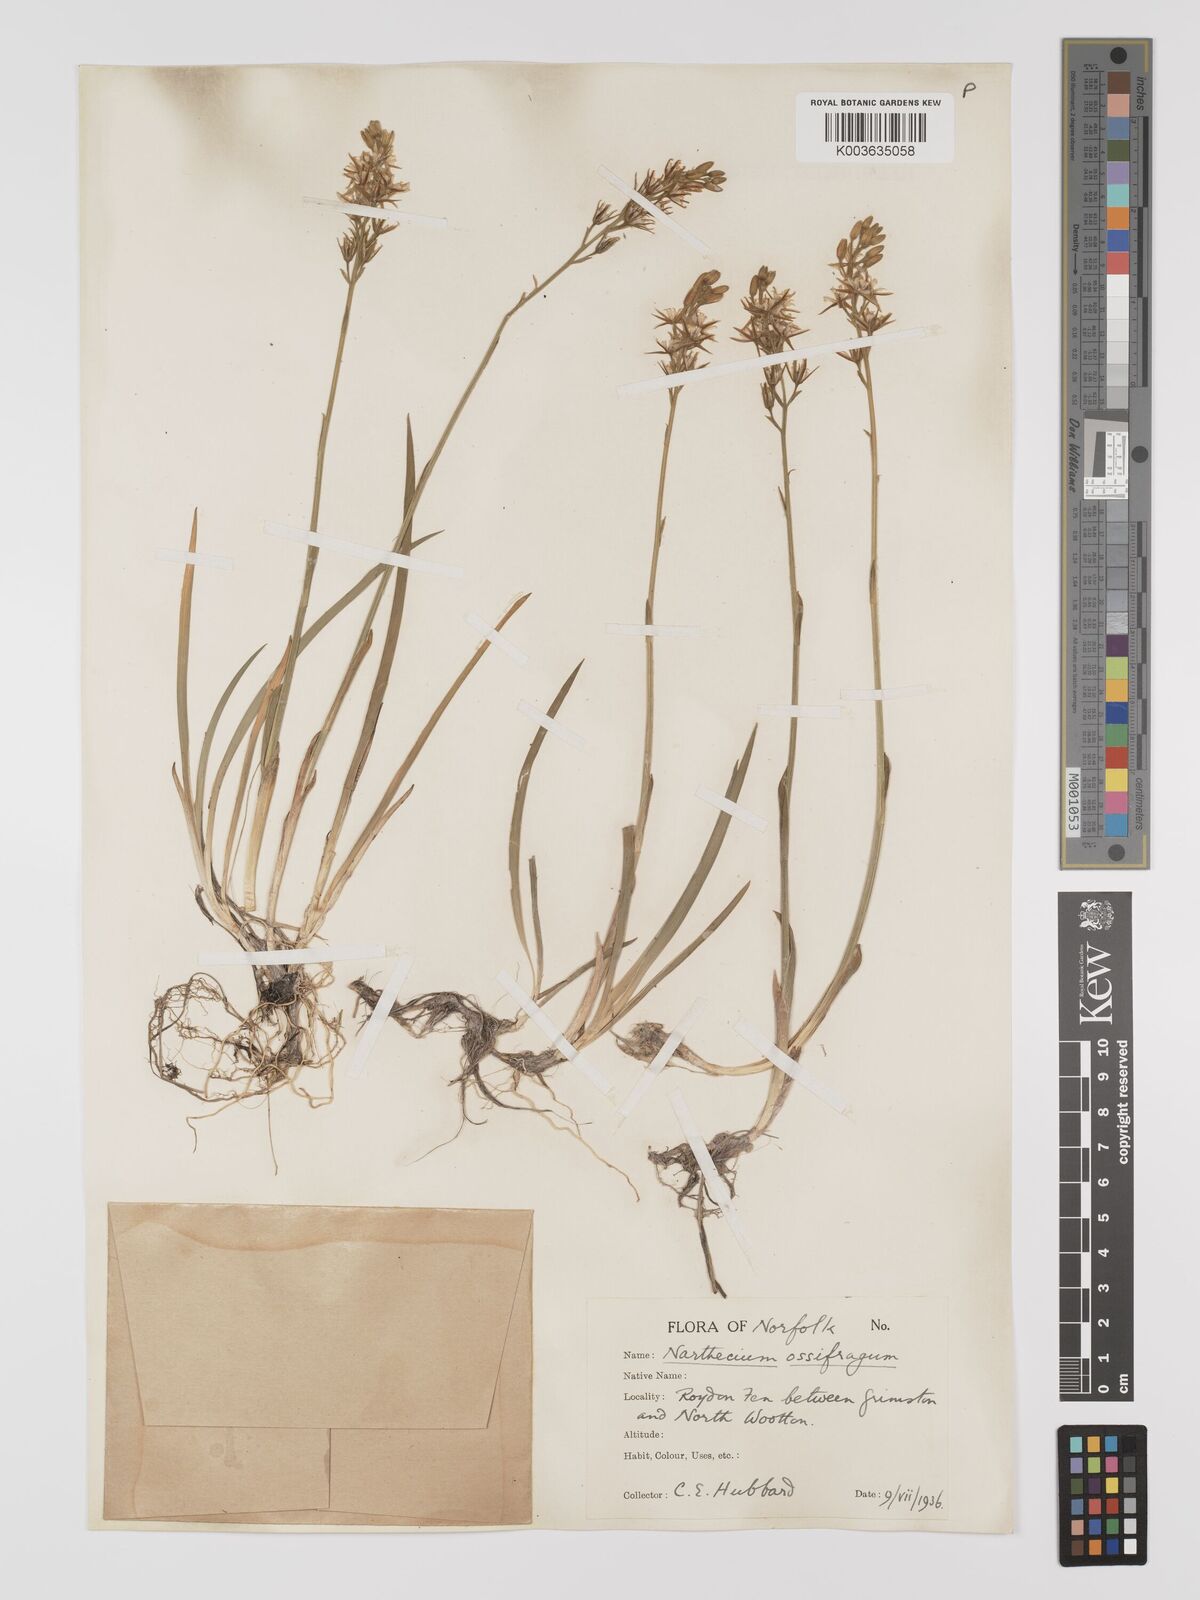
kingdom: Plantae
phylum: Tracheophyta
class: Liliopsida
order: Dioscoreales
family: Nartheciaceae
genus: Narthecium
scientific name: Narthecium
